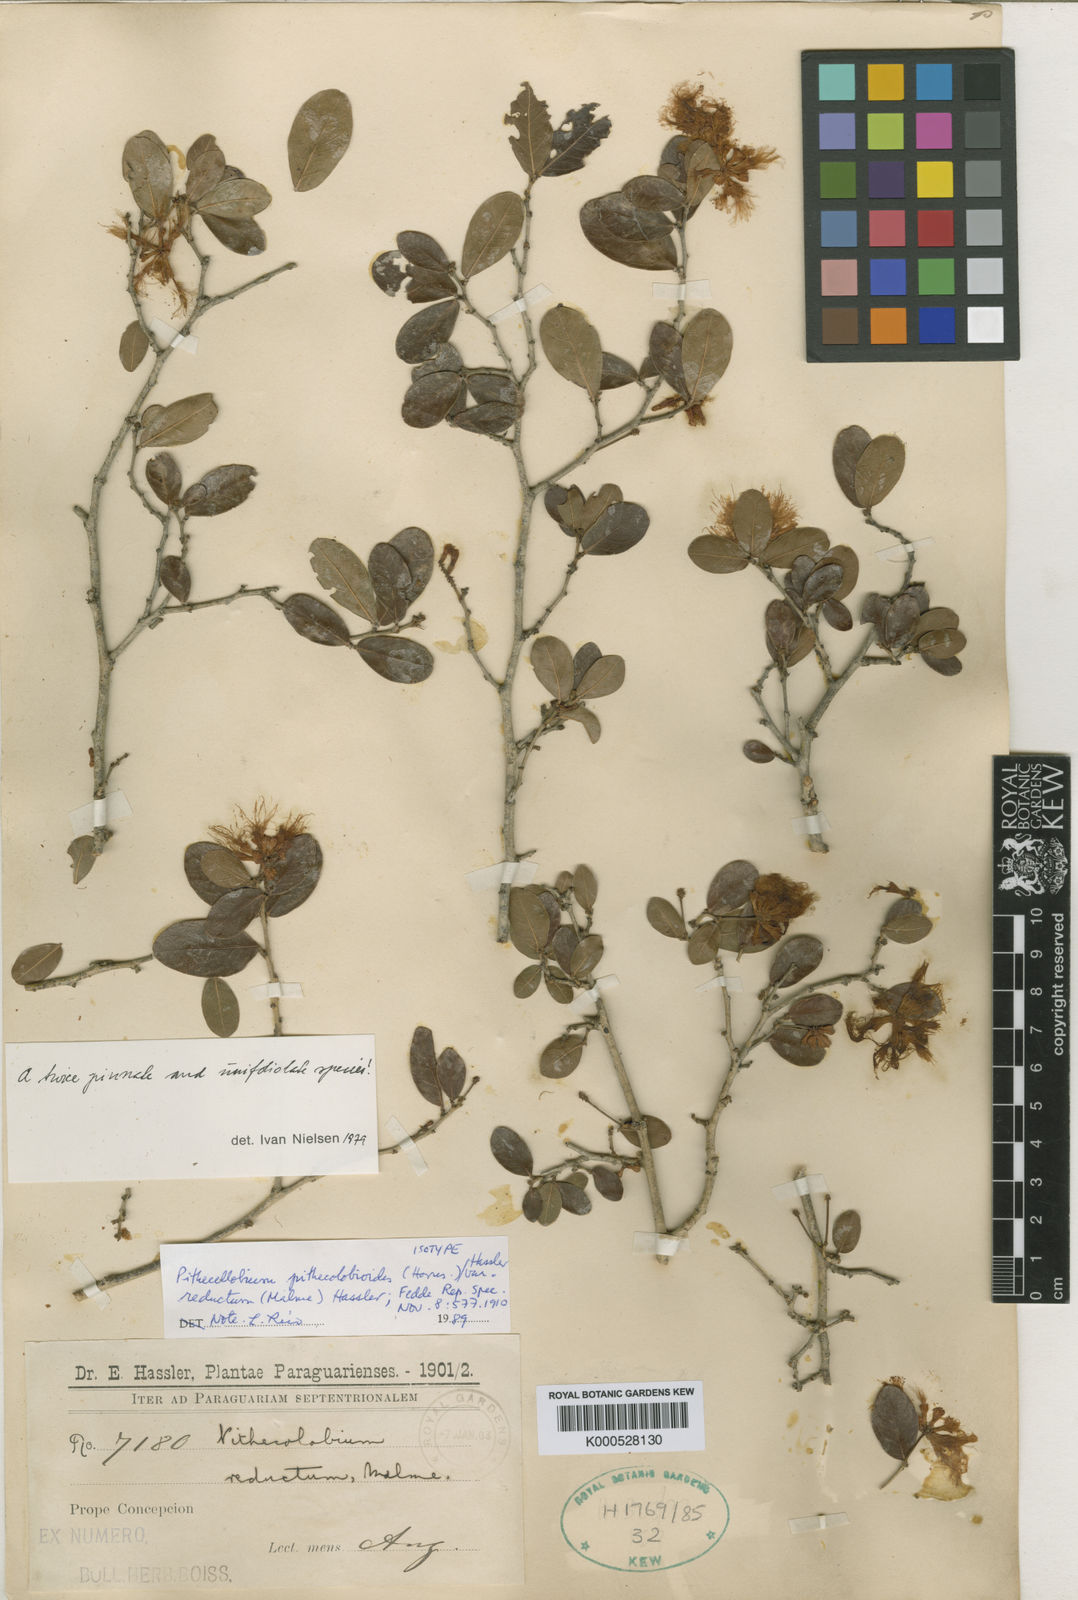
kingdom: Plantae
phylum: Tracheophyta
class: Magnoliopsida
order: Fabales
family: Fabaceae
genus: Zygia
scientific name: Zygia pithecolobioides
